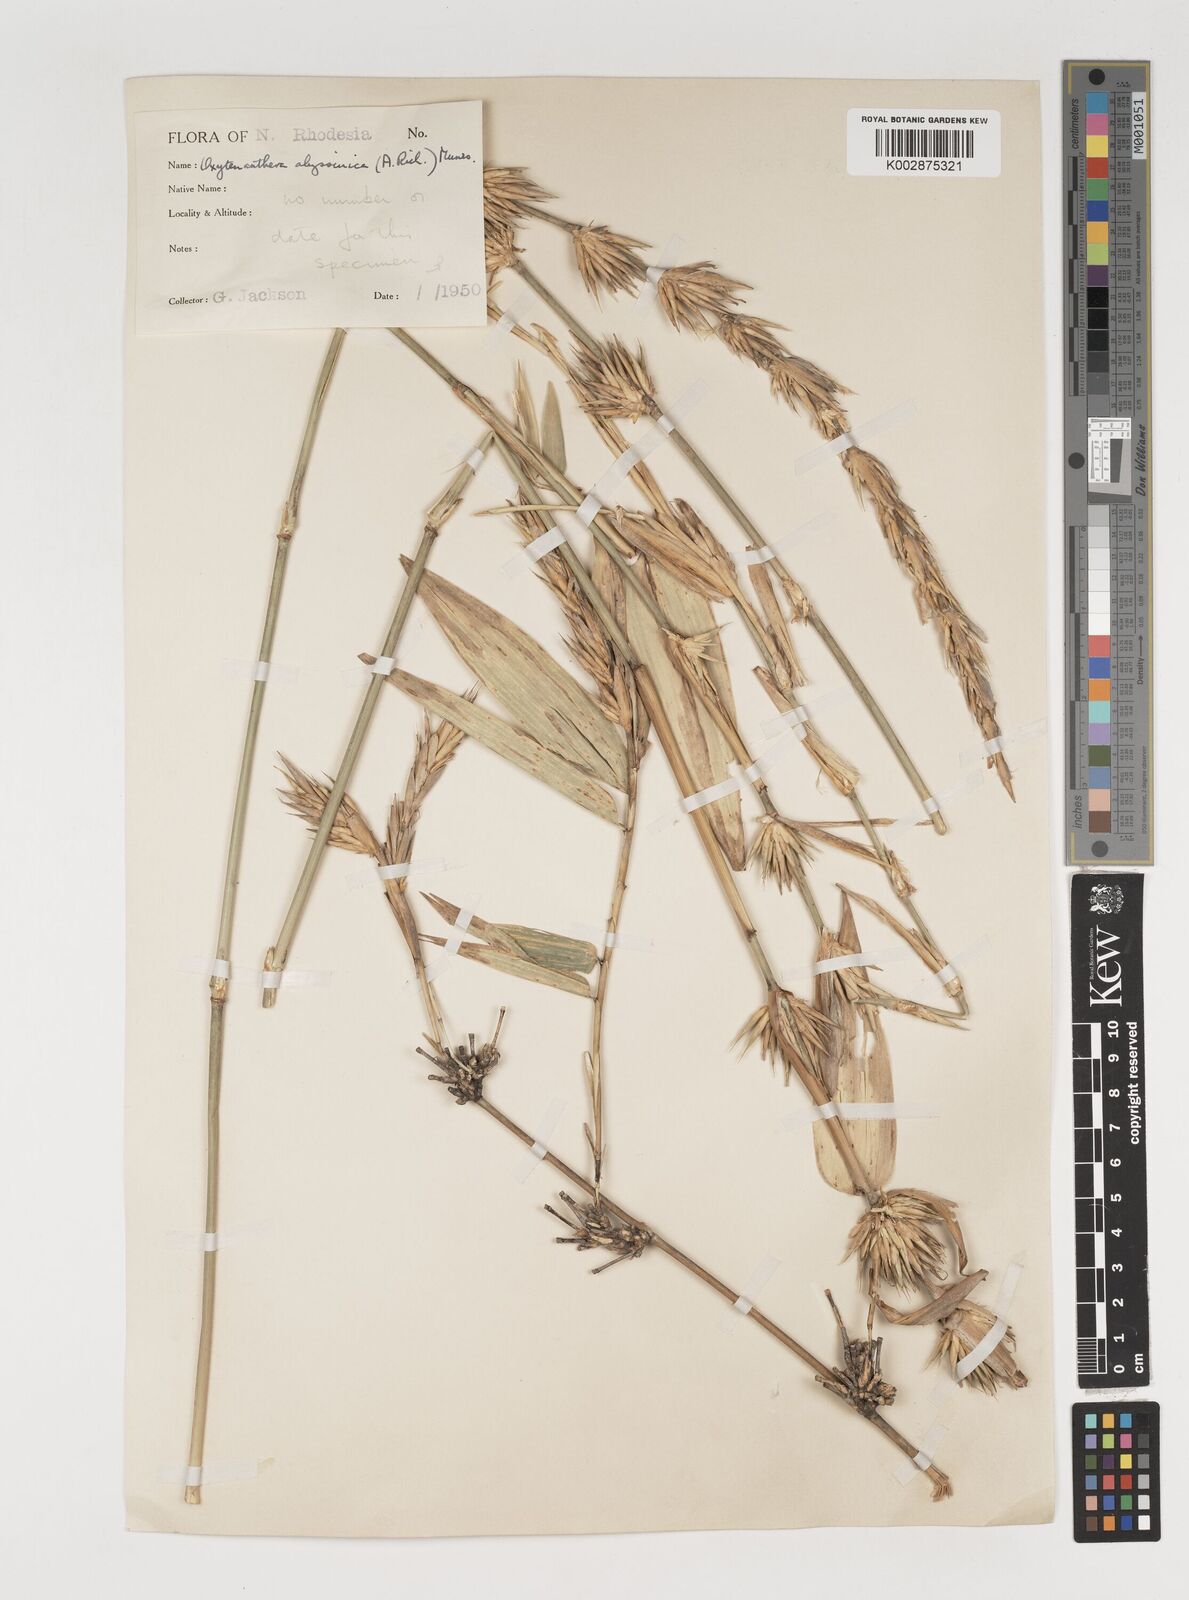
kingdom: Plantae
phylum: Tracheophyta
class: Liliopsida
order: Poales
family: Poaceae
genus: Oxytenanthera
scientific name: Oxytenanthera abyssinica
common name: Wine bamboo
